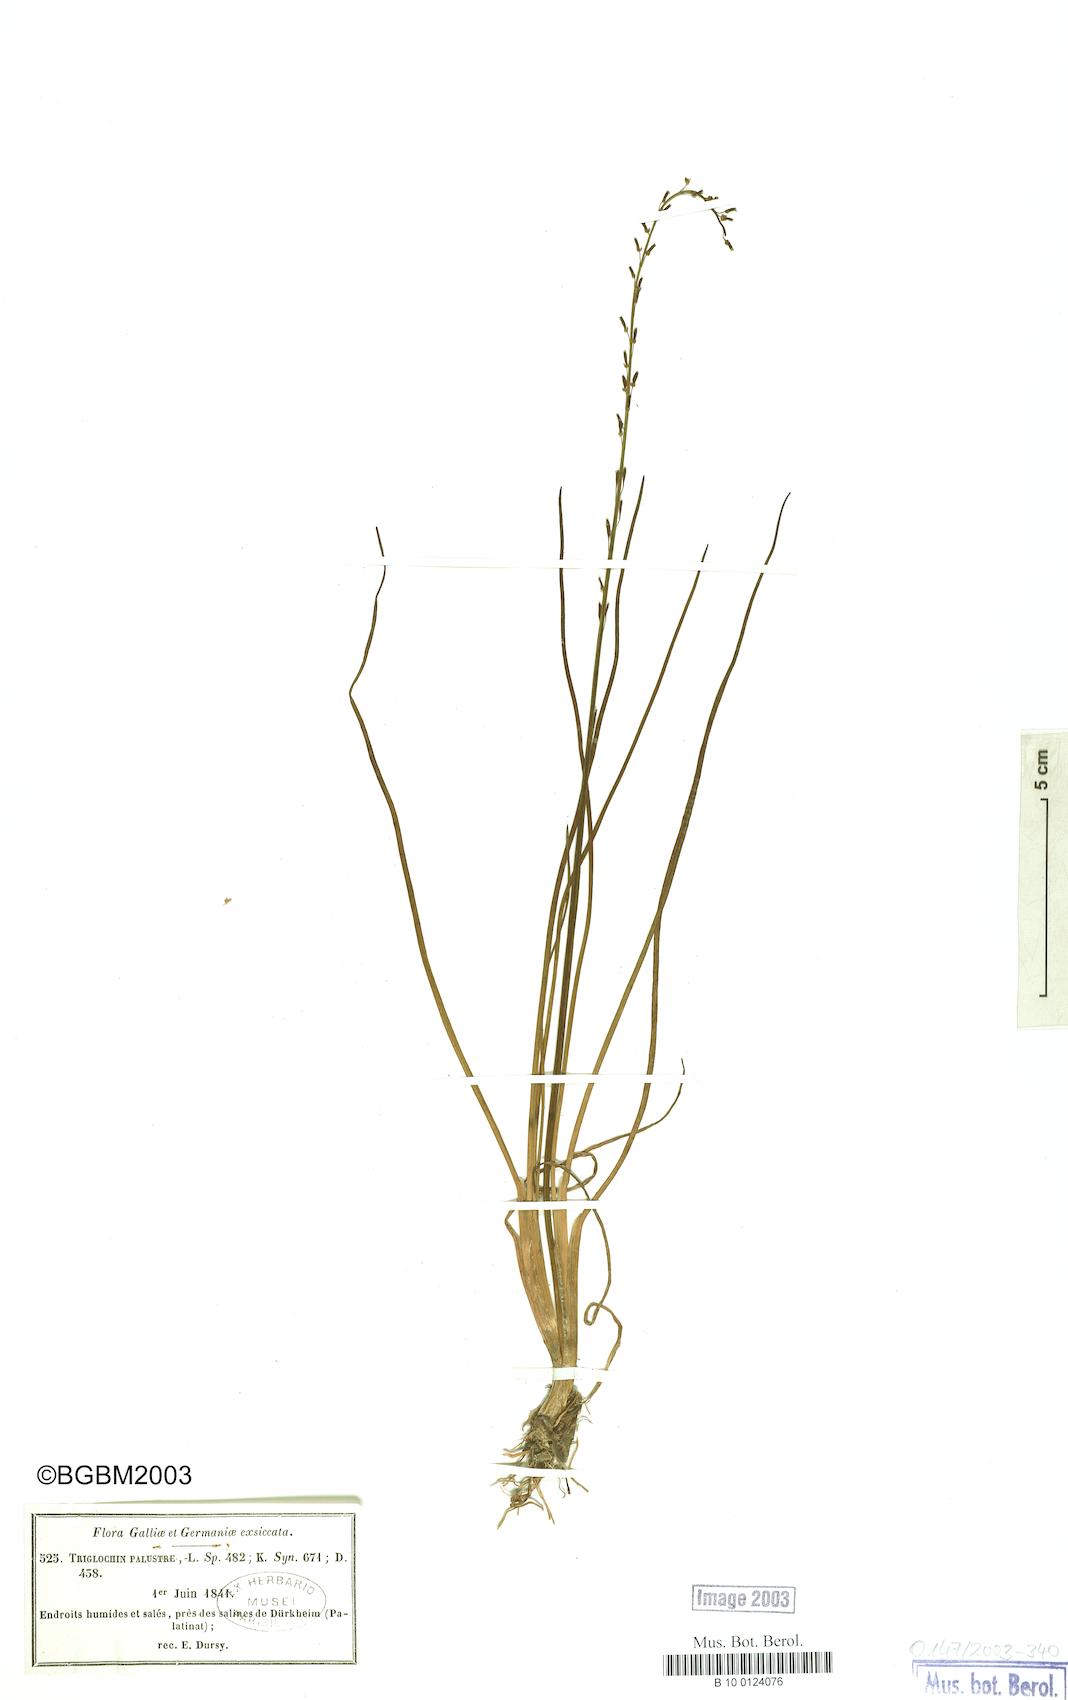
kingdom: Plantae
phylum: Tracheophyta
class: Liliopsida
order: Alismatales
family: Juncaginaceae
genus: Triglochin
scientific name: Triglochin palustris
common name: Marsh arrowgrass
